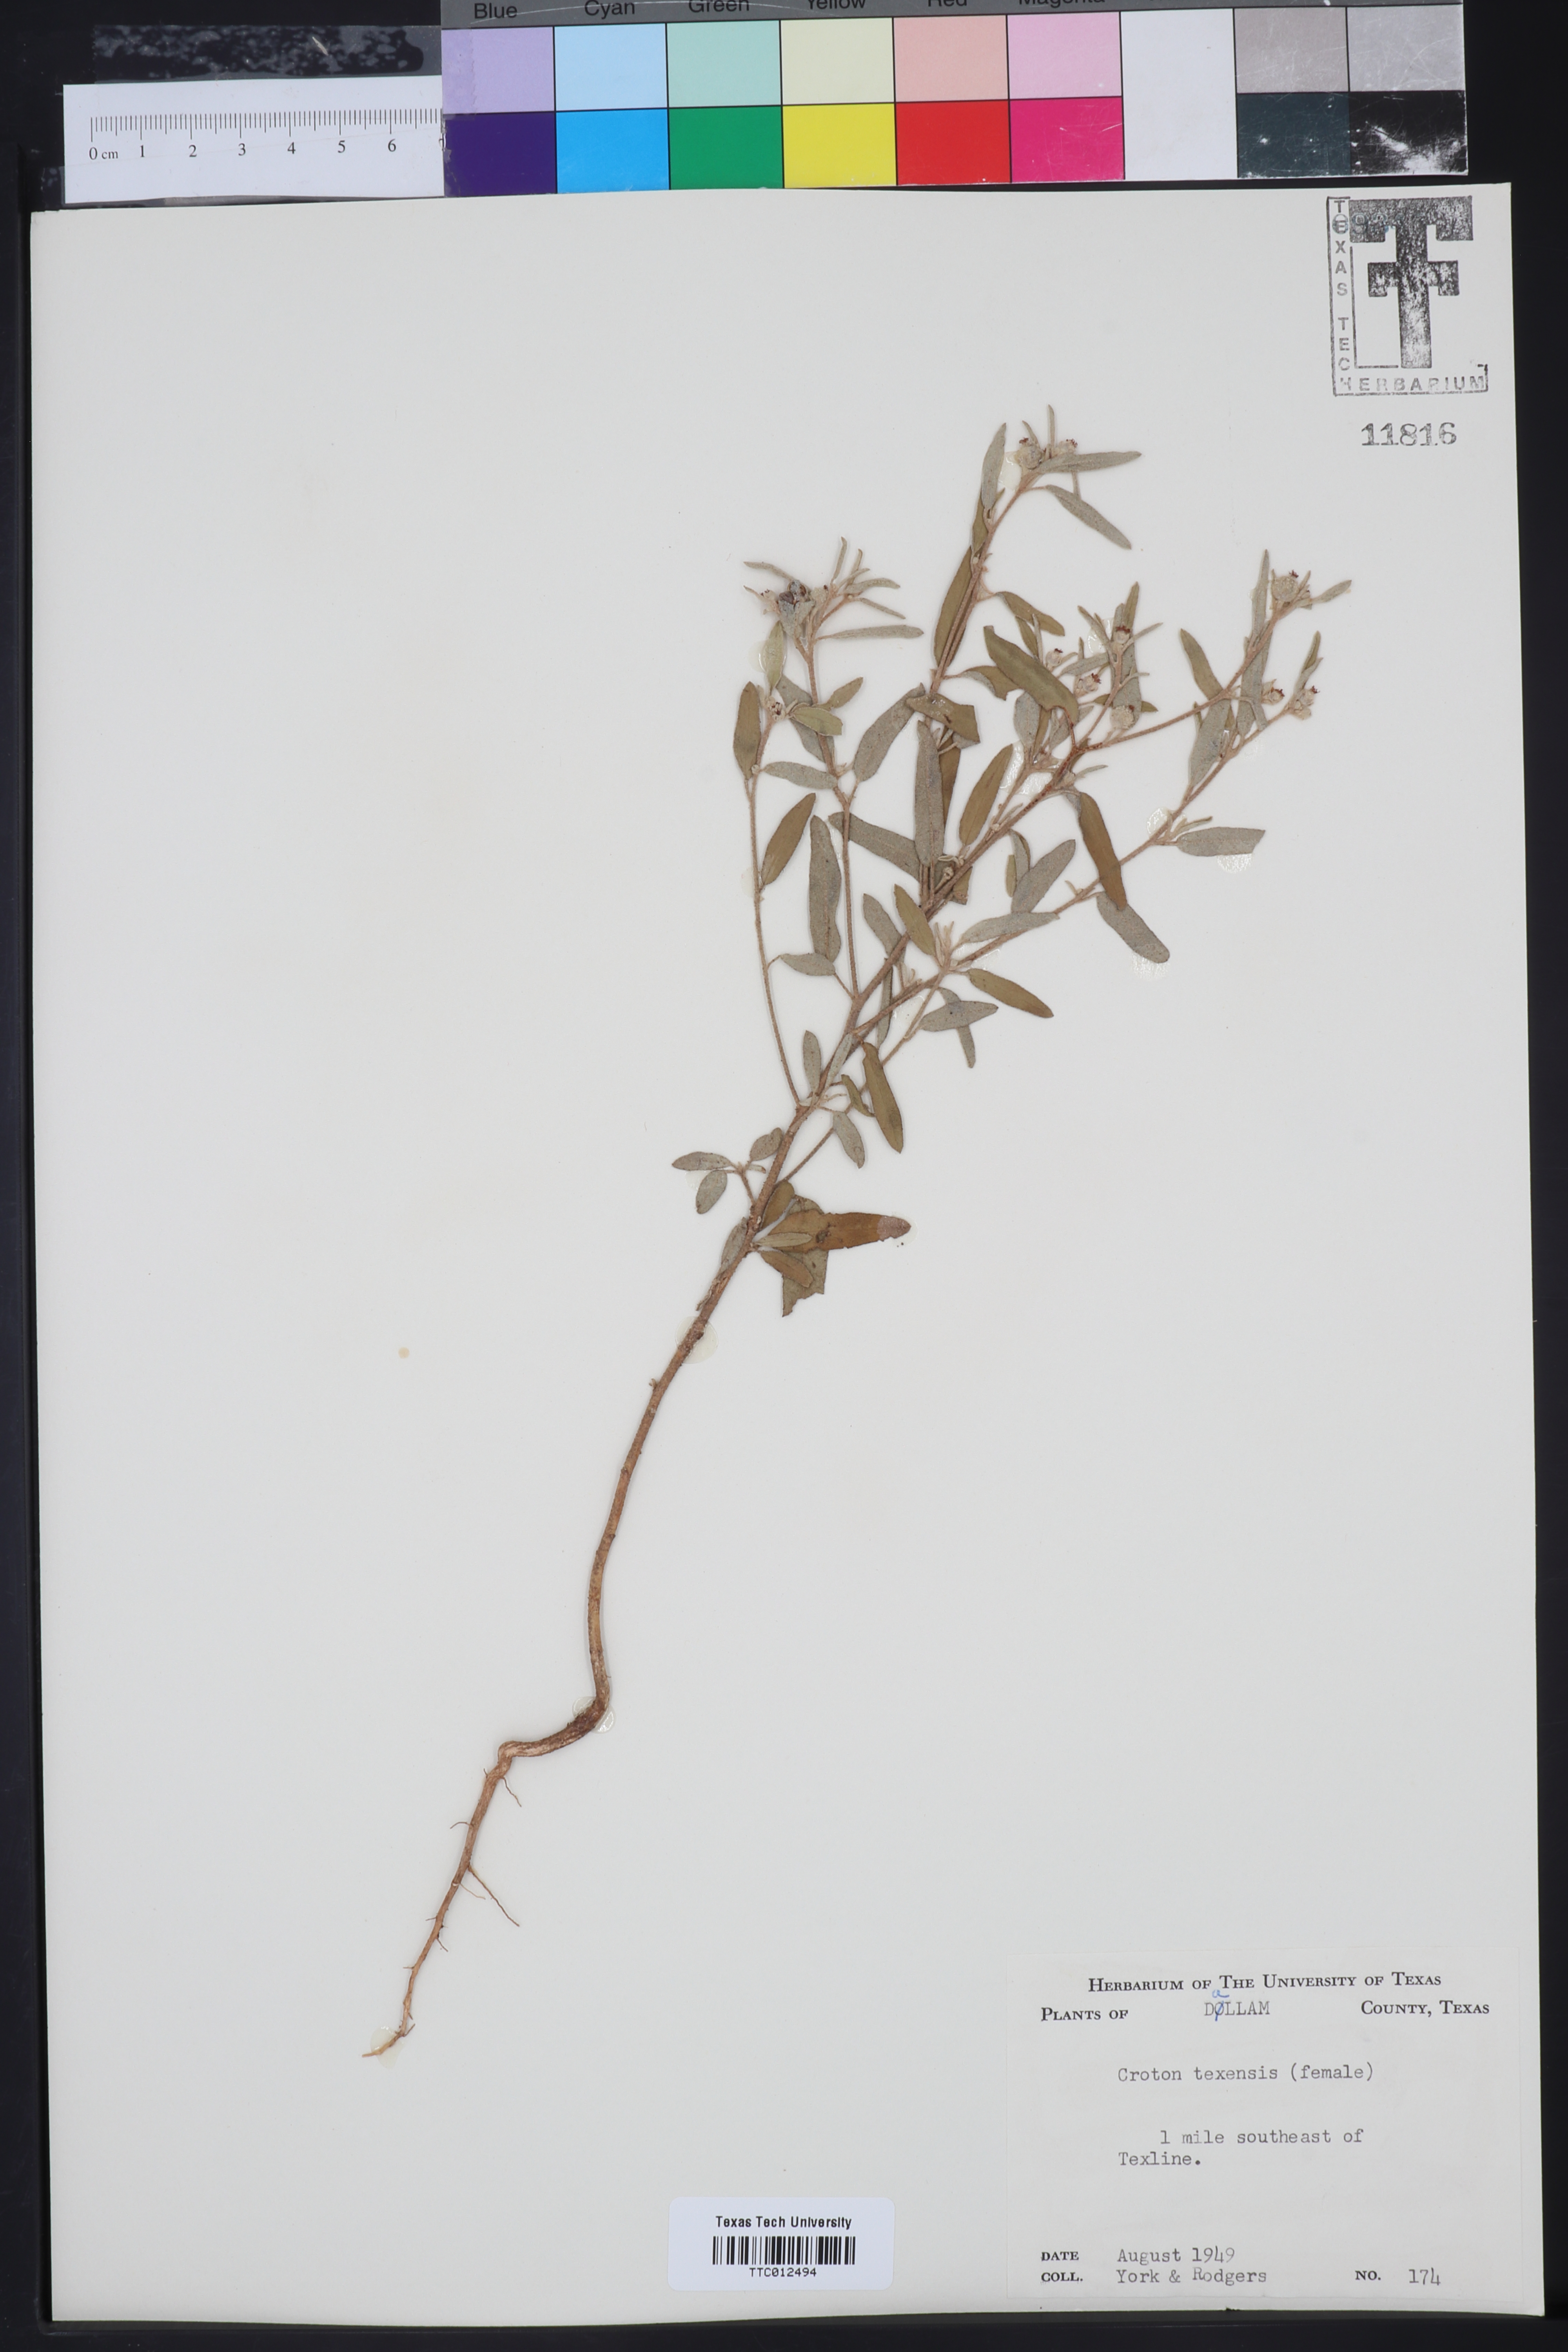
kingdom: Plantae
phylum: Tracheophyta
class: Magnoliopsida
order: Malpighiales
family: Euphorbiaceae
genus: Croton
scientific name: Croton texensis
